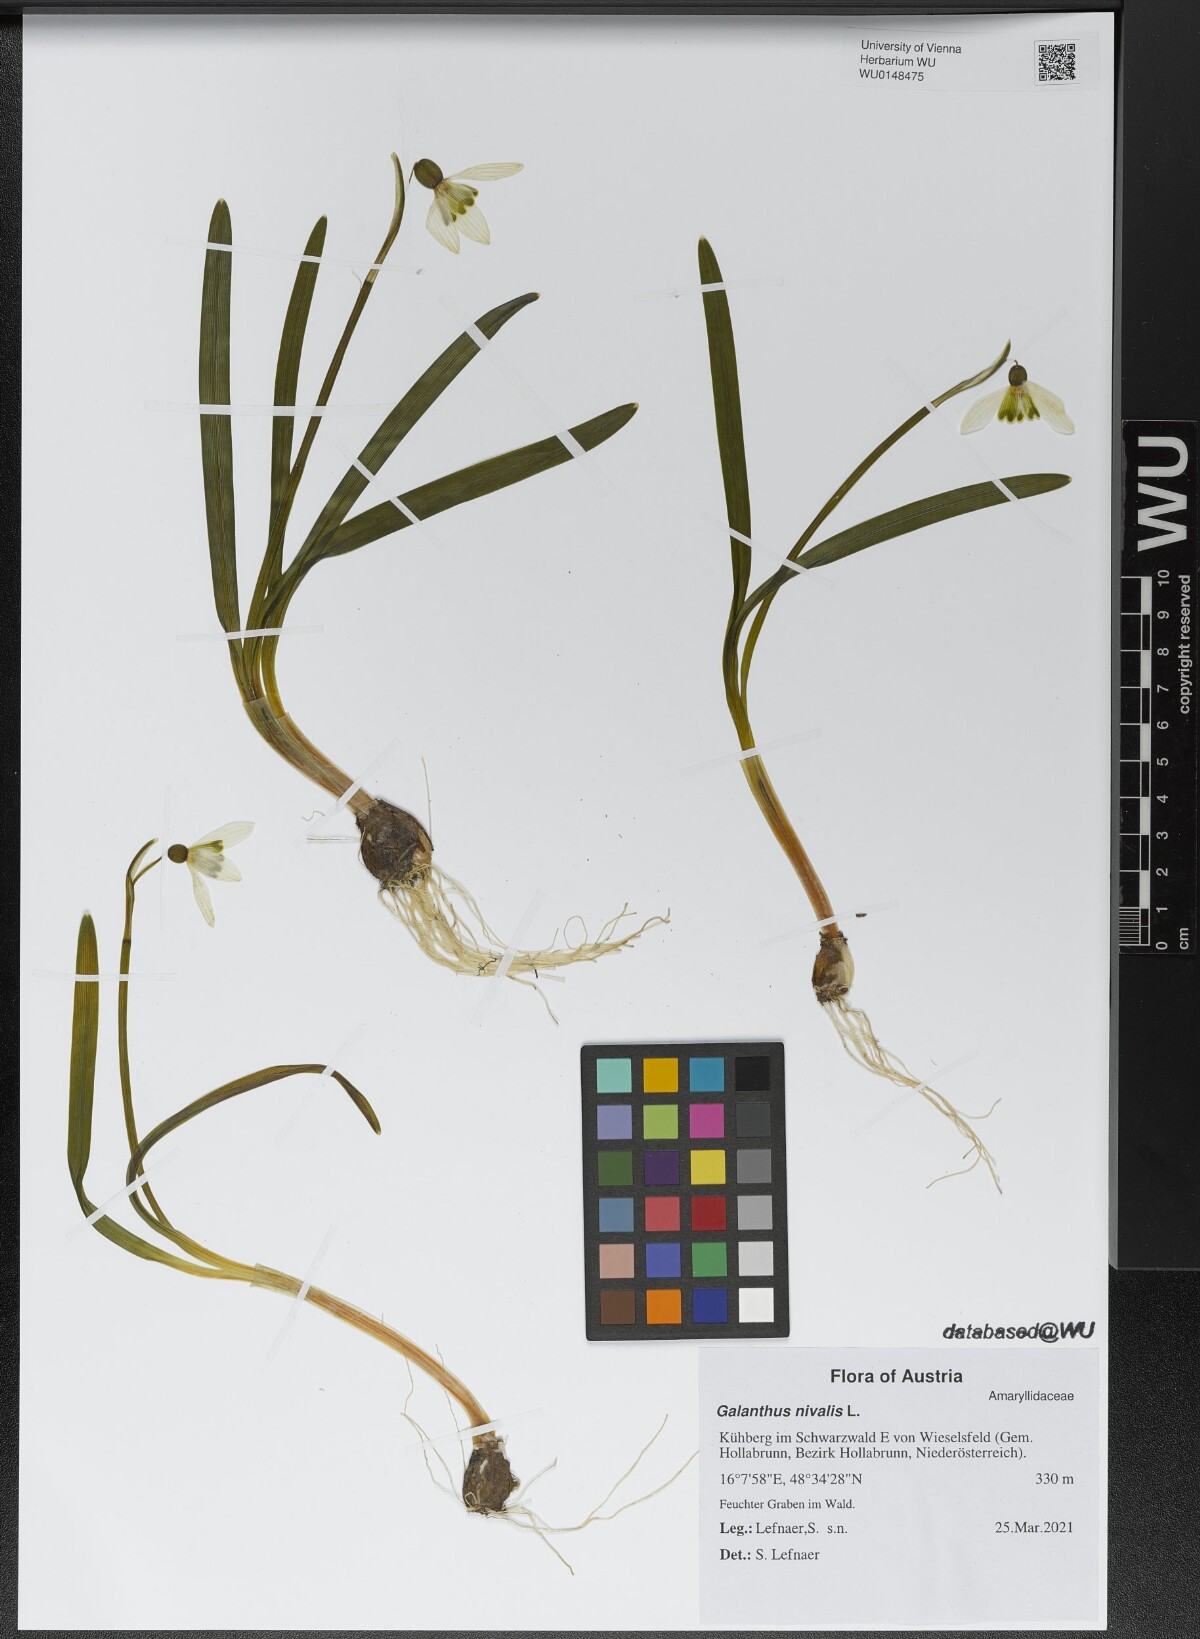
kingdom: Plantae
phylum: Tracheophyta
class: Liliopsida
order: Asparagales
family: Amaryllidaceae
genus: Galanthus
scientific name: Galanthus nivalis
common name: Snowdrop
